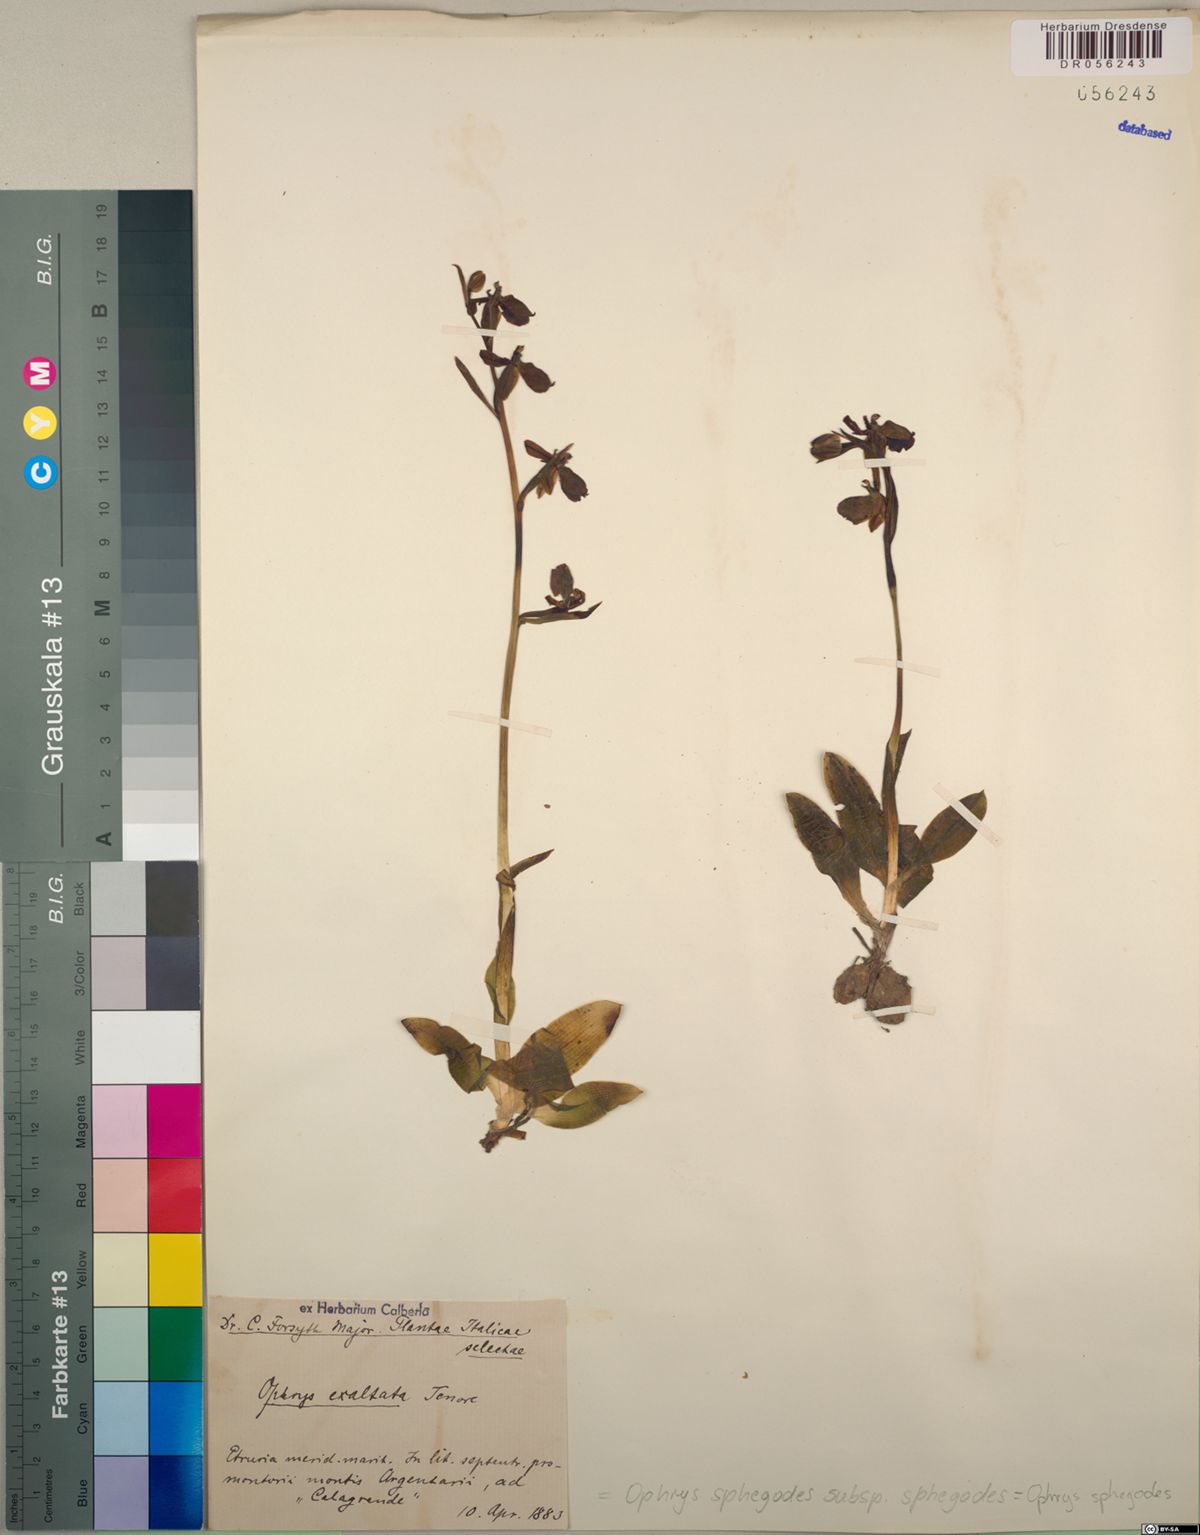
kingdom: Plantae
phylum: Tracheophyta
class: Liliopsida
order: Asparagales
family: Orchidaceae
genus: Ophrys
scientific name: Ophrys sphegodes
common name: Early spider-orchid
